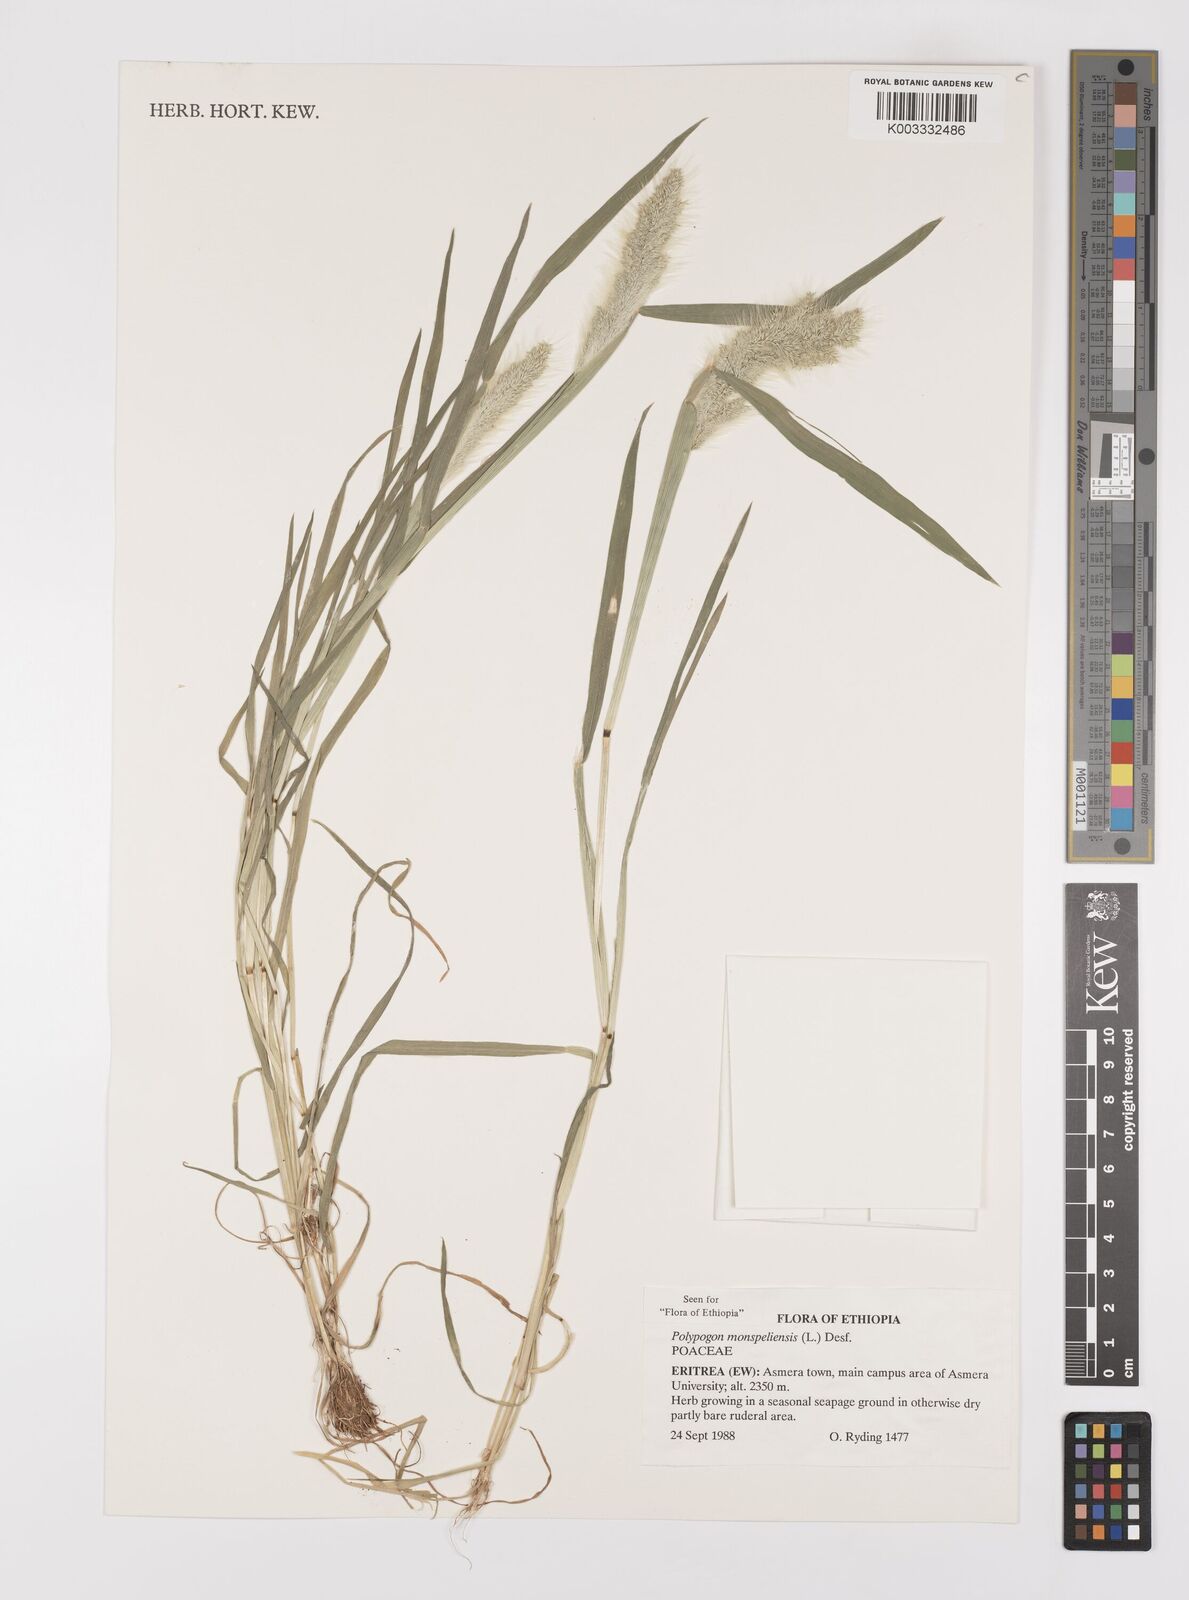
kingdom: Plantae
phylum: Tracheophyta
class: Liliopsida
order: Poales
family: Poaceae
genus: Polypogon
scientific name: Polypogon monspeliensis
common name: Annual rabbitsfoot grass
